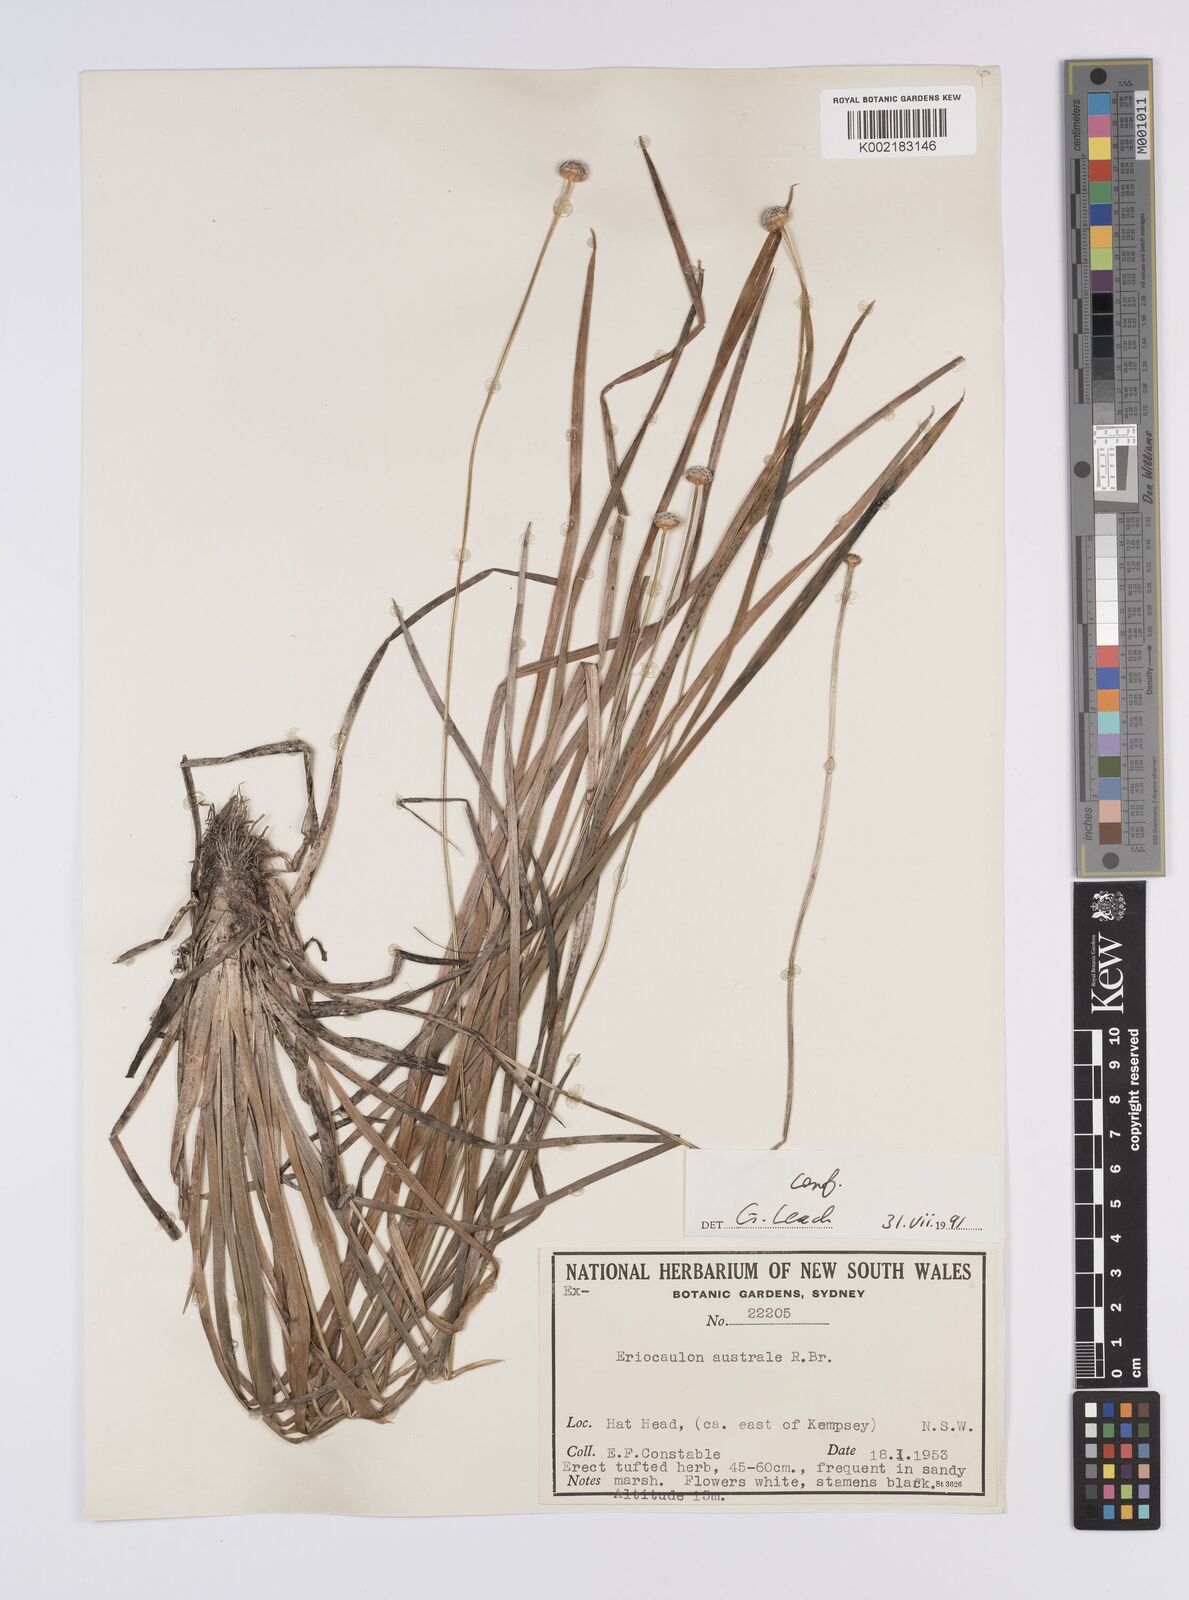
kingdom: Plantae
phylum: Tracheophyta
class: Liliopsida
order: Poales
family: Eriocaulaceae
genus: Eriocaulon
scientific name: Eriocaulon australe
